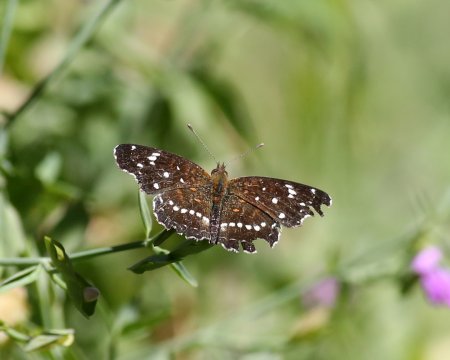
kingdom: Animalia
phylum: Arthropoda
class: Insecta
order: Lepidoptera
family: Nymphalidae
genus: Anthanassa
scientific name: Anthanassa texana
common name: Texan Crescent
